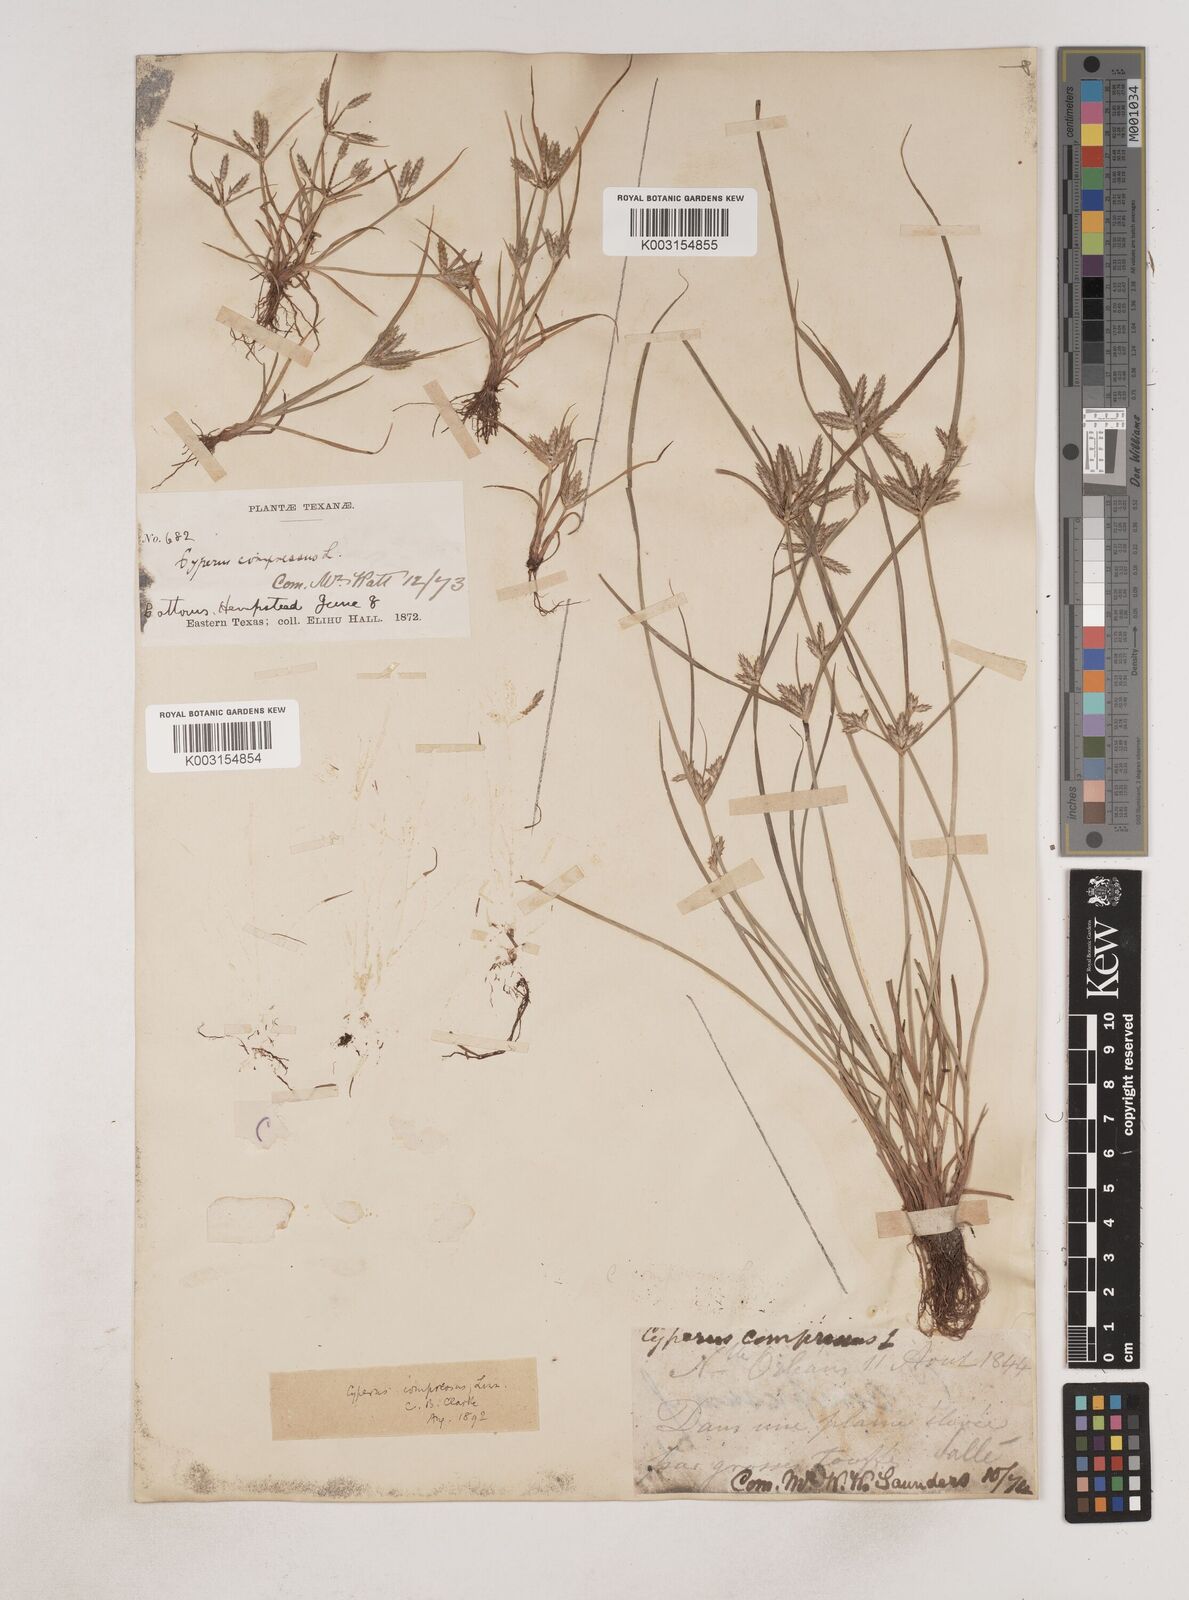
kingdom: Plantae
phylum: Tracheophyta
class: Liliopsida
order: Poales
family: Cyperaceae
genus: Cyperus
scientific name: Cyperus compressus
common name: Poorland flatsedge
